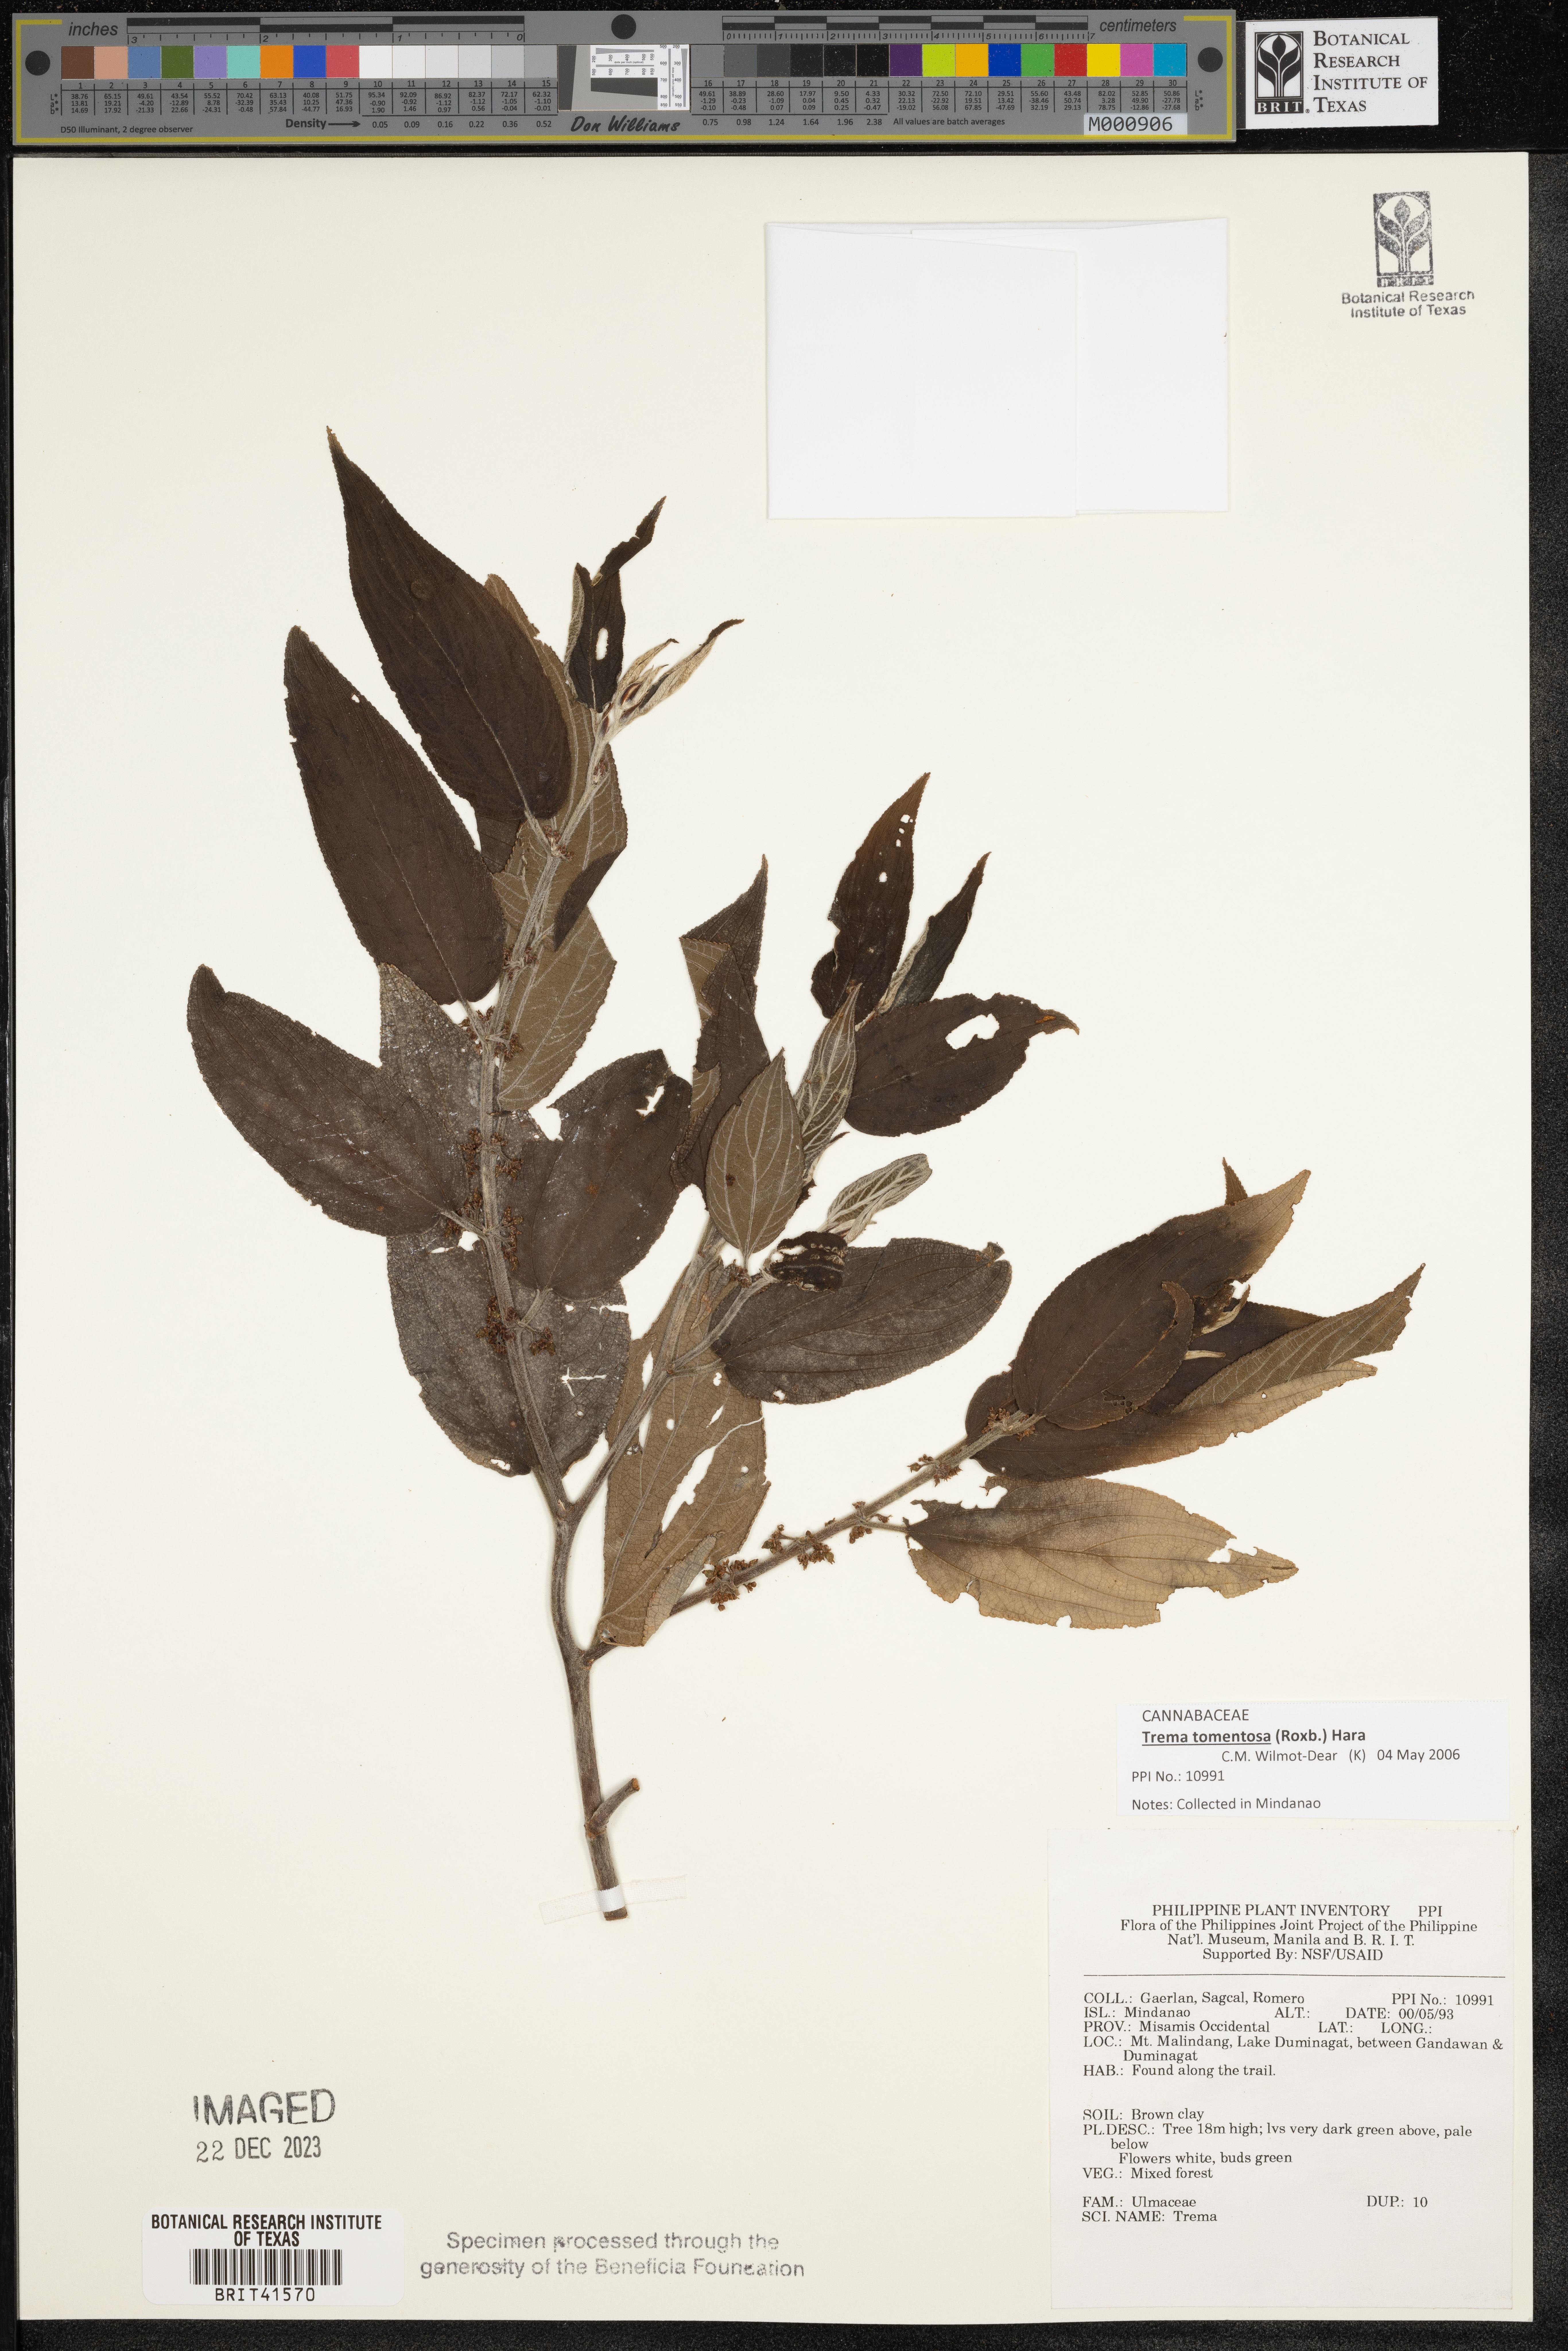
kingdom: Plantae
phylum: Tracheophyta
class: Magnoliopsida
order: Rosales
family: Cannabaceae
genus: Trema
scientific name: Trema
